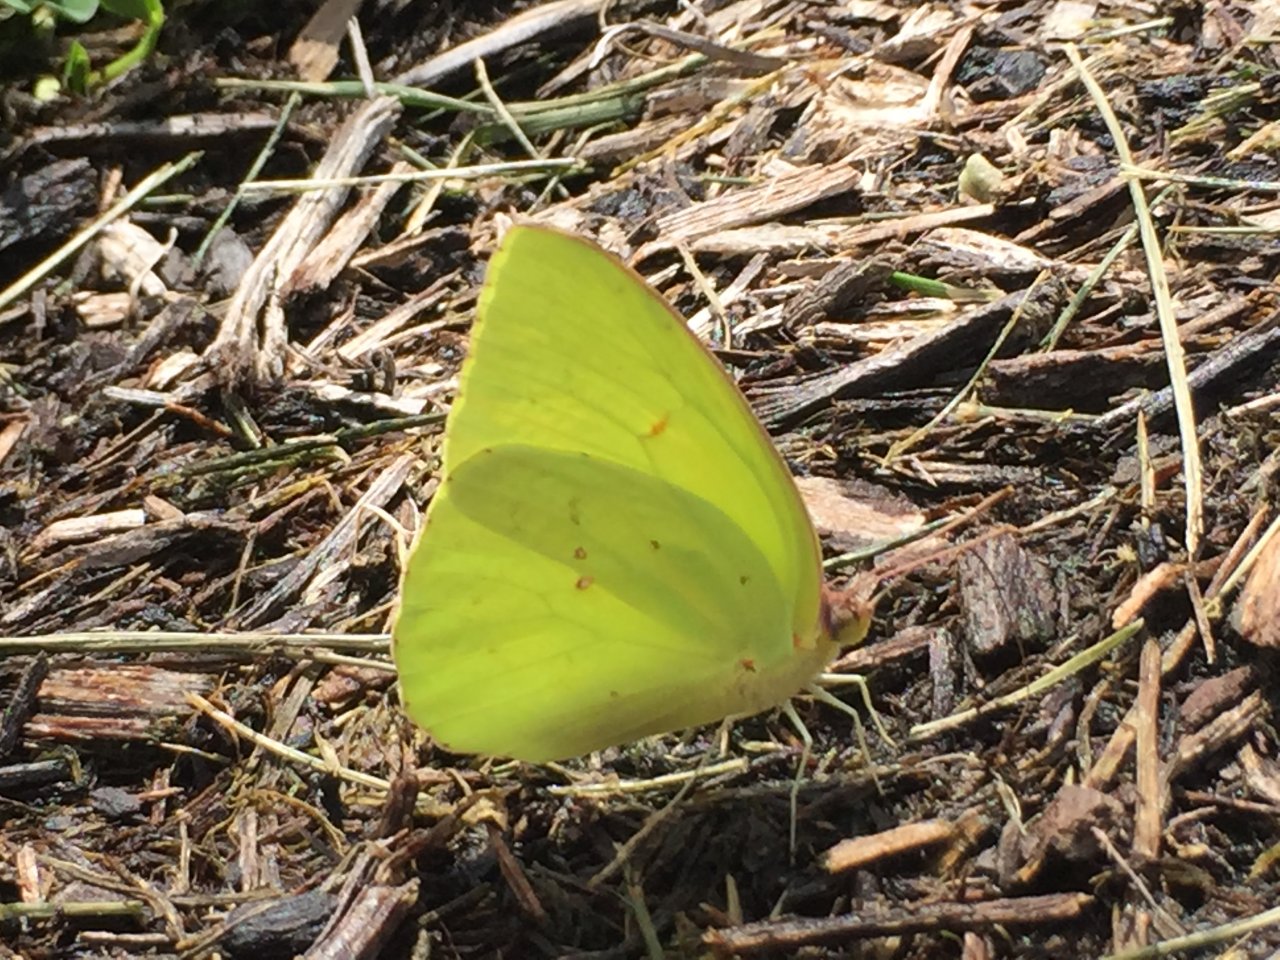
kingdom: Animalia
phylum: Arthropoda
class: Insecta
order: Lepidoptera
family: Pieridae
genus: Phoebis
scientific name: Phoebis sennae
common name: Cloudless Sulphur
